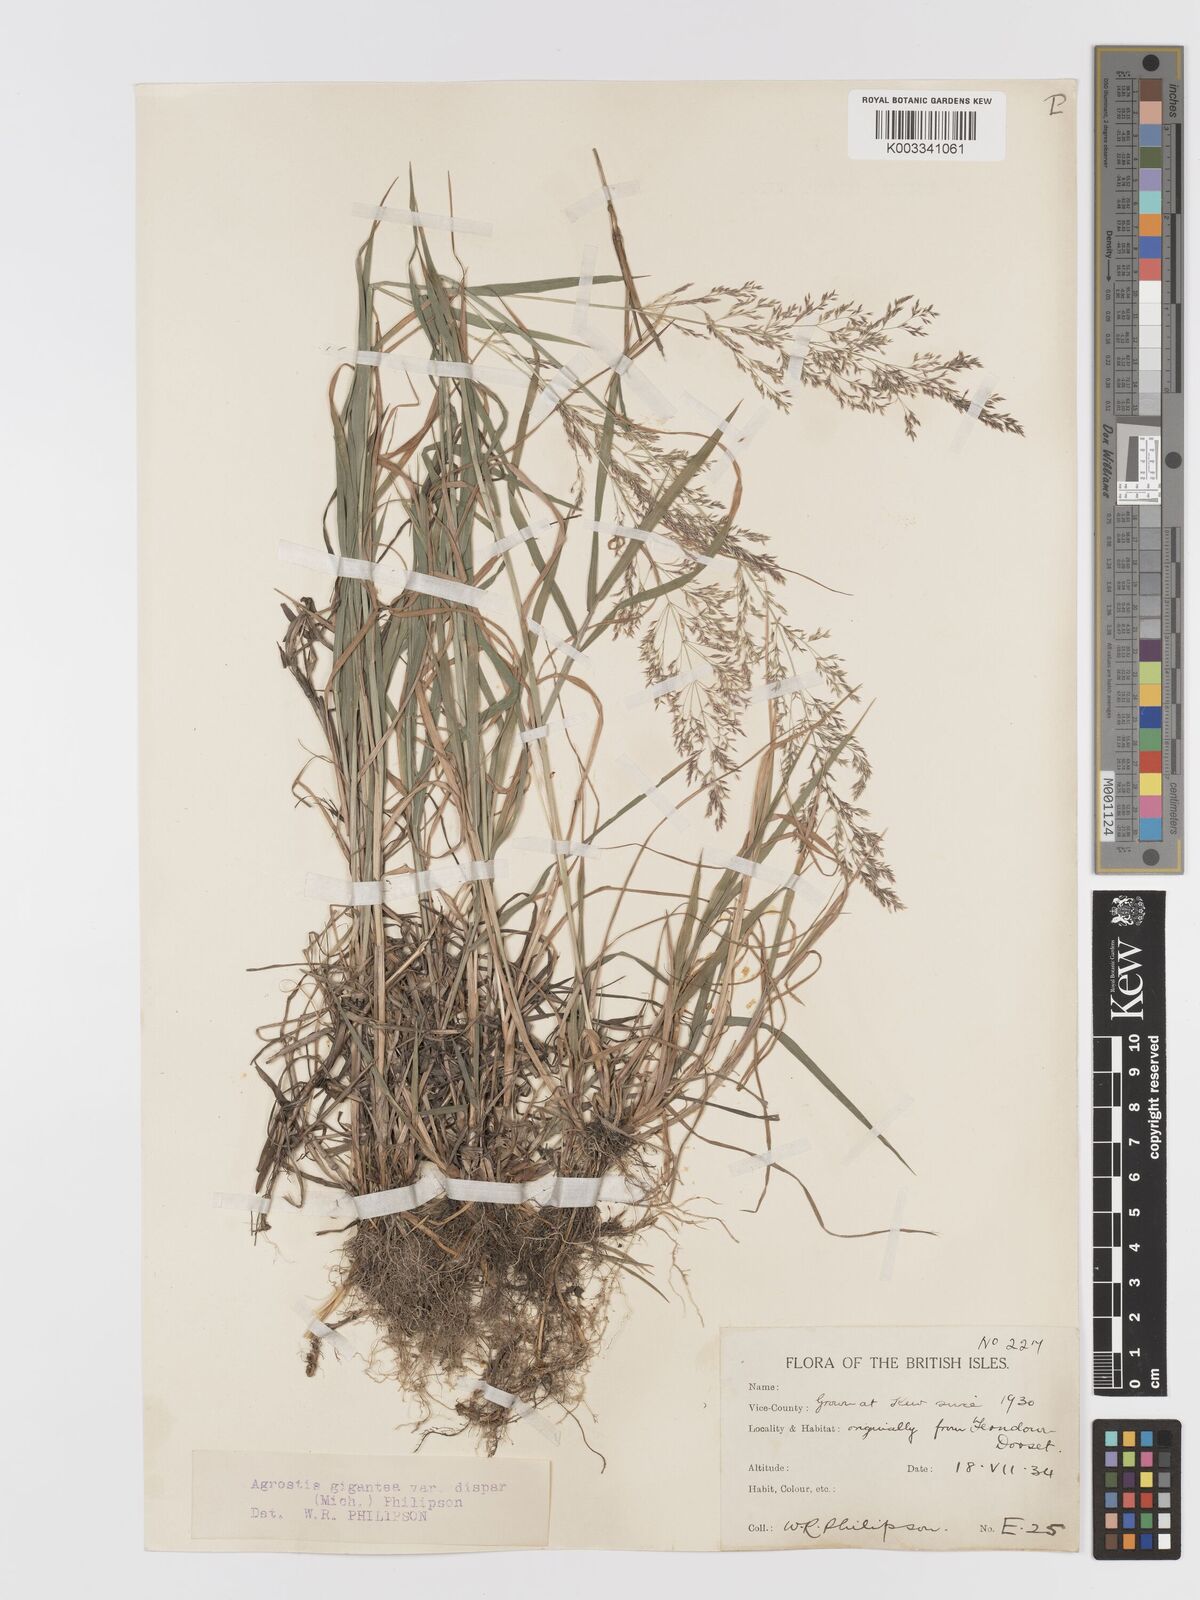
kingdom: Plantae
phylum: Tracheophyta
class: Liliopsida
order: Poales
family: Poaceae
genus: Agrostis
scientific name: Agrostis gigantea
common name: Black bent
